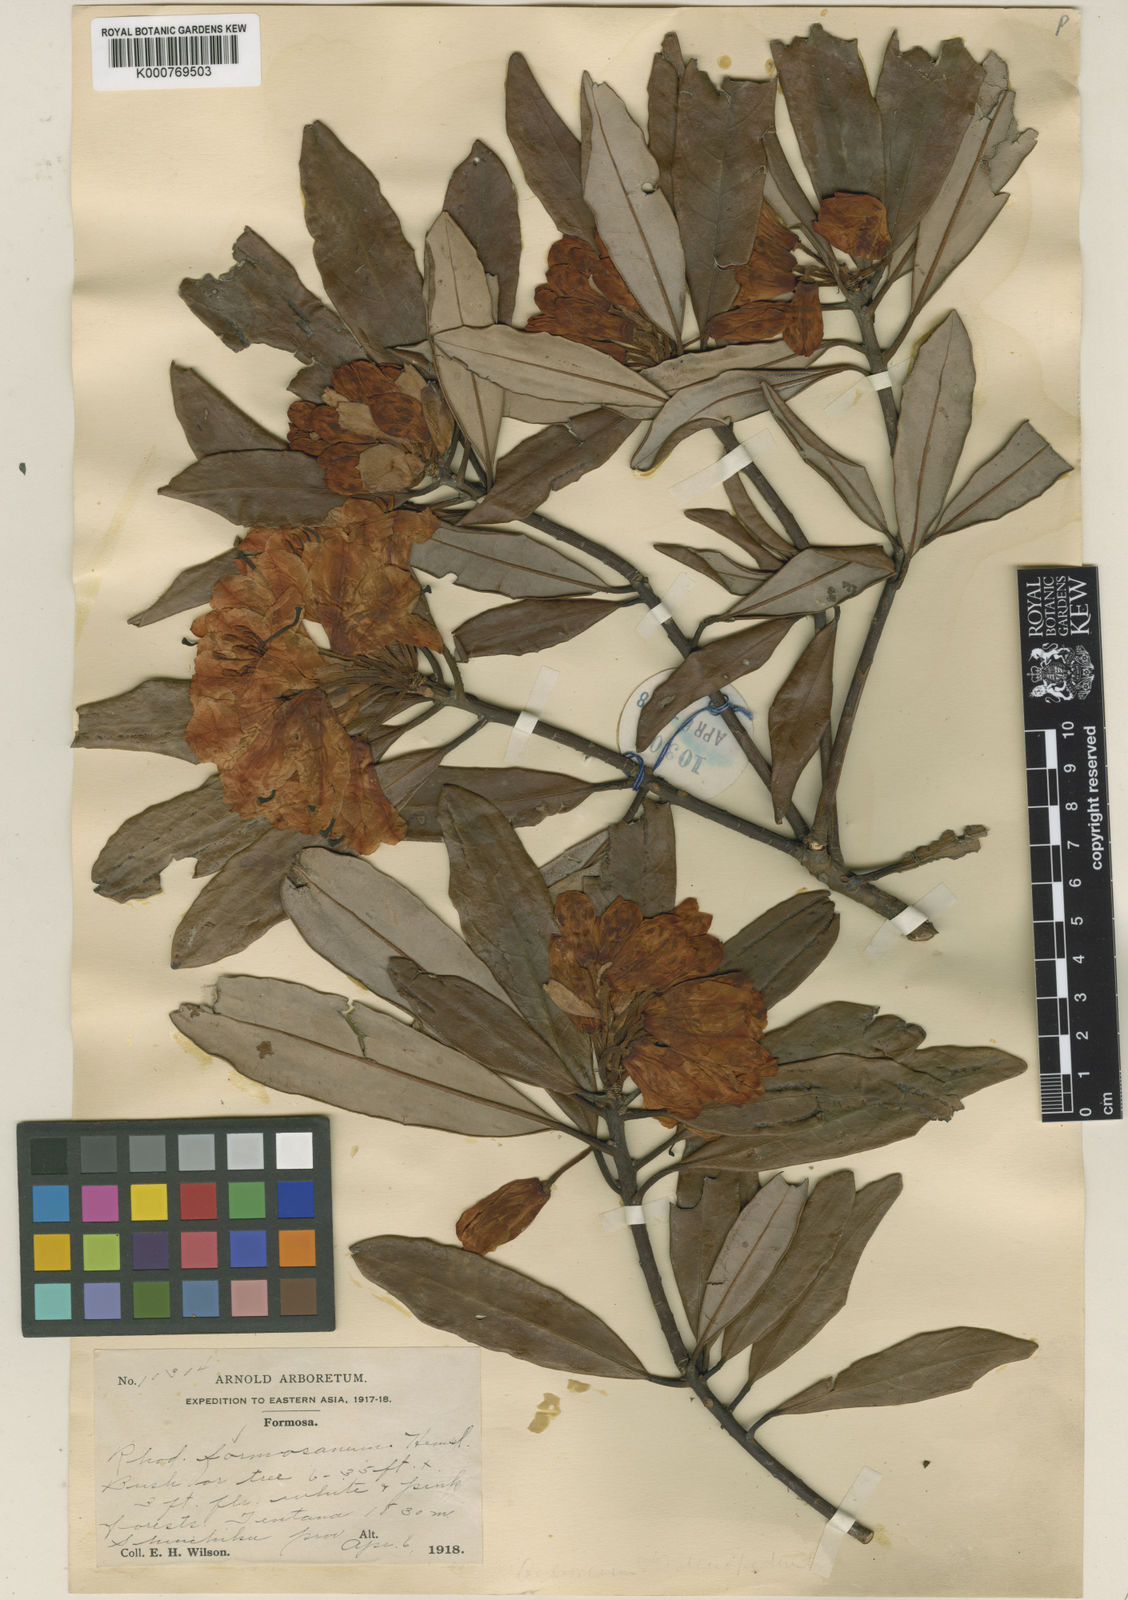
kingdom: Plantae
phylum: Tracheophyta
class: Magnoliopsida
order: Ericales
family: Ericaceae
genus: Rhododendron
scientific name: Rhododendron formosanum
